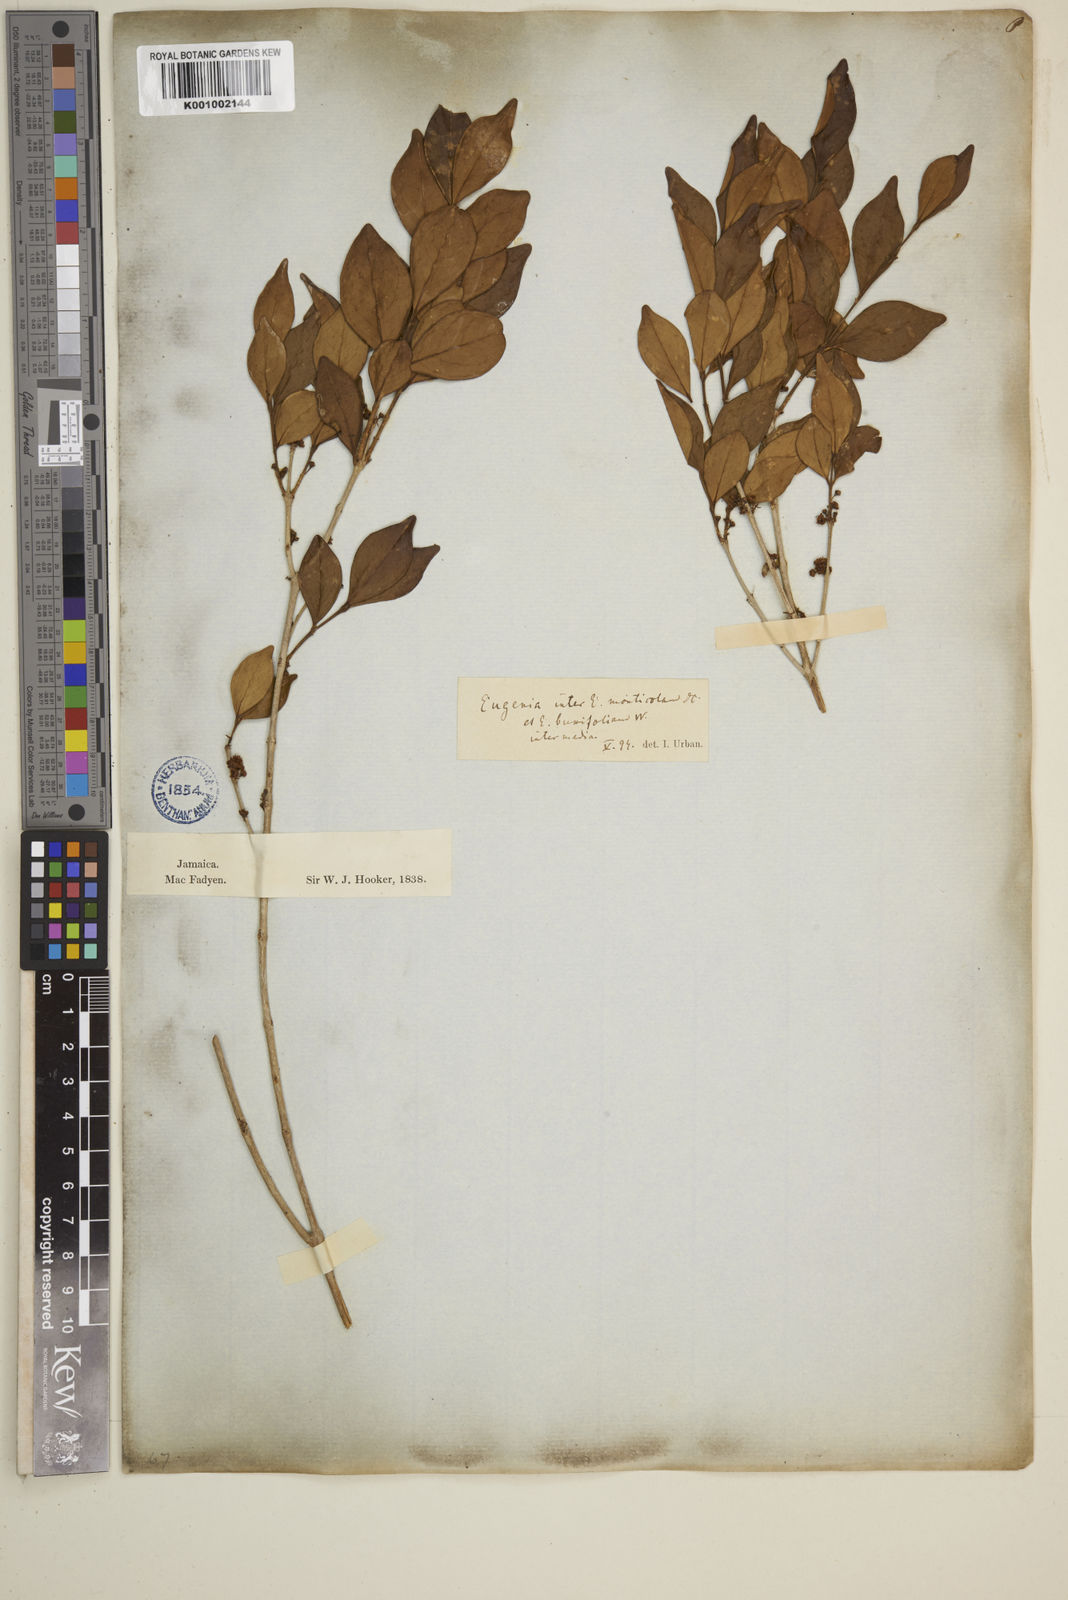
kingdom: Plantae
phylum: Tracheophyta
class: Magnoliopsida
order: Myrtales
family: Myrtaceae
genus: Eugenia
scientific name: Eugenia monticola
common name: Birds berry
